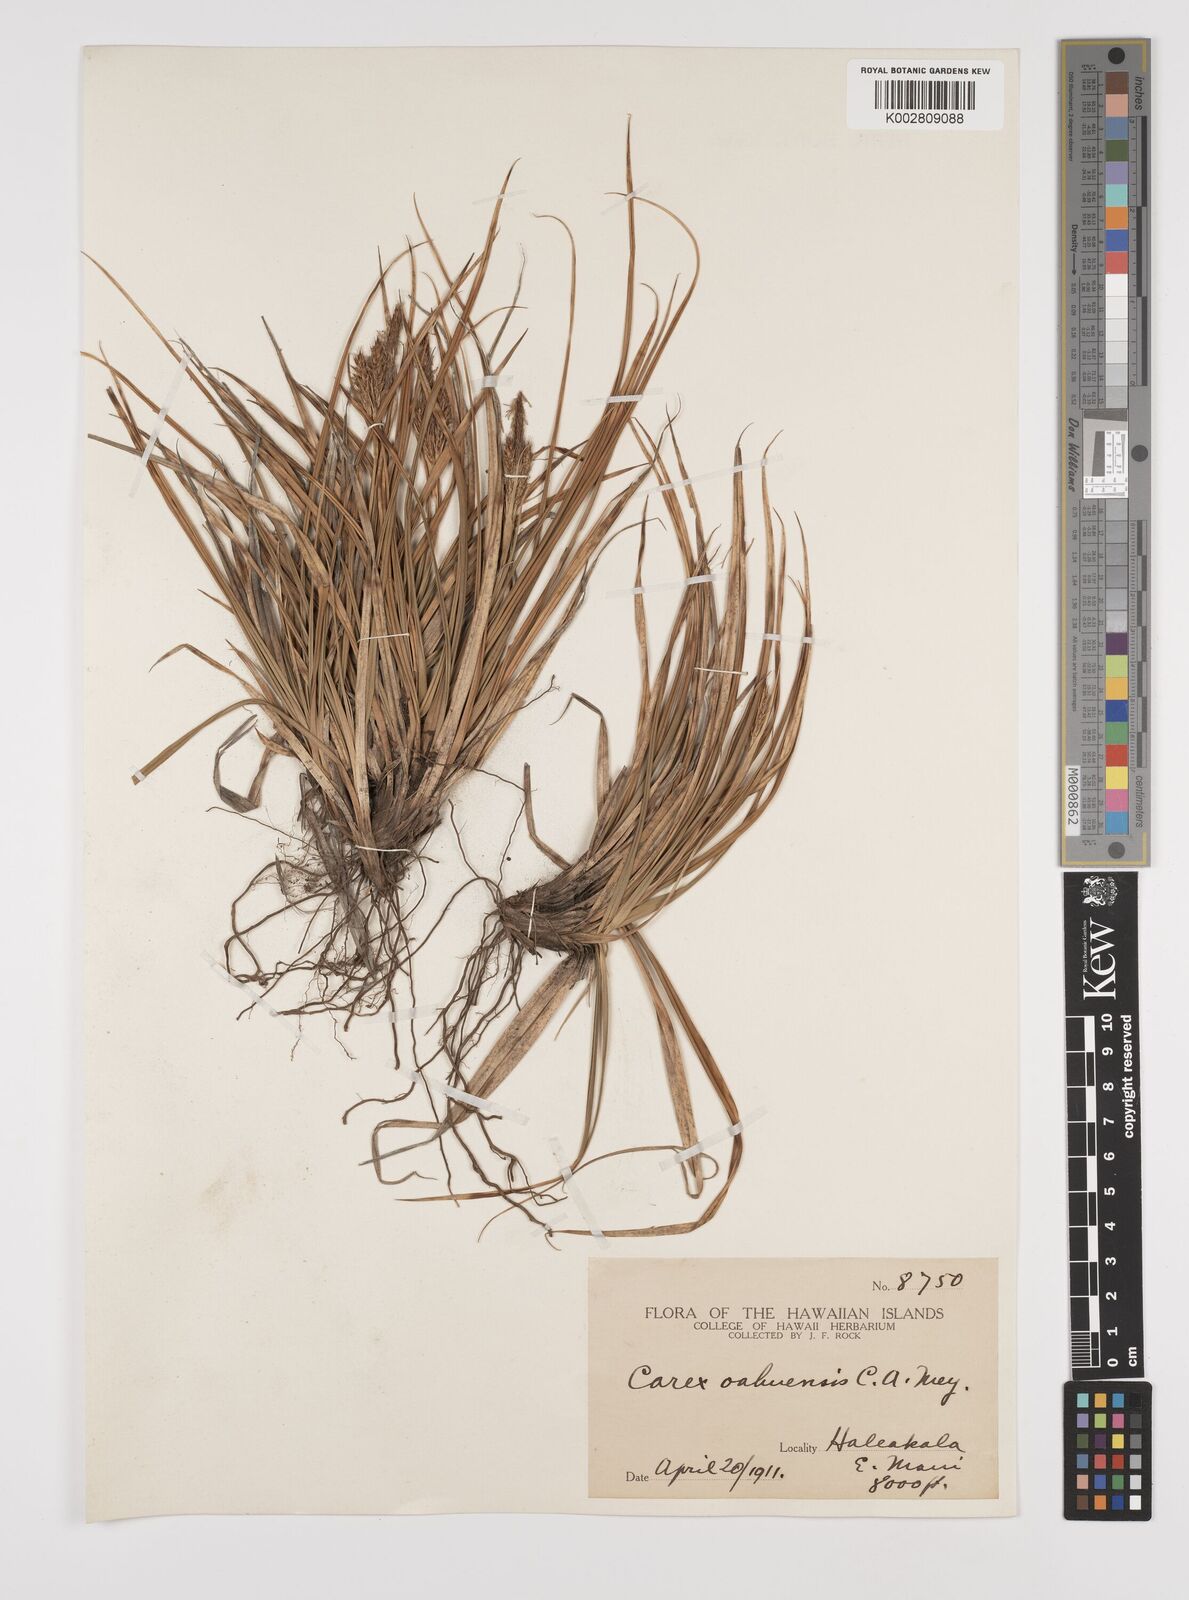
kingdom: Plantae
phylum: Tracheophyta
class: Liliopsida
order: Poales
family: Cyperaceae
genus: Carex
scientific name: Carex wahuensis
